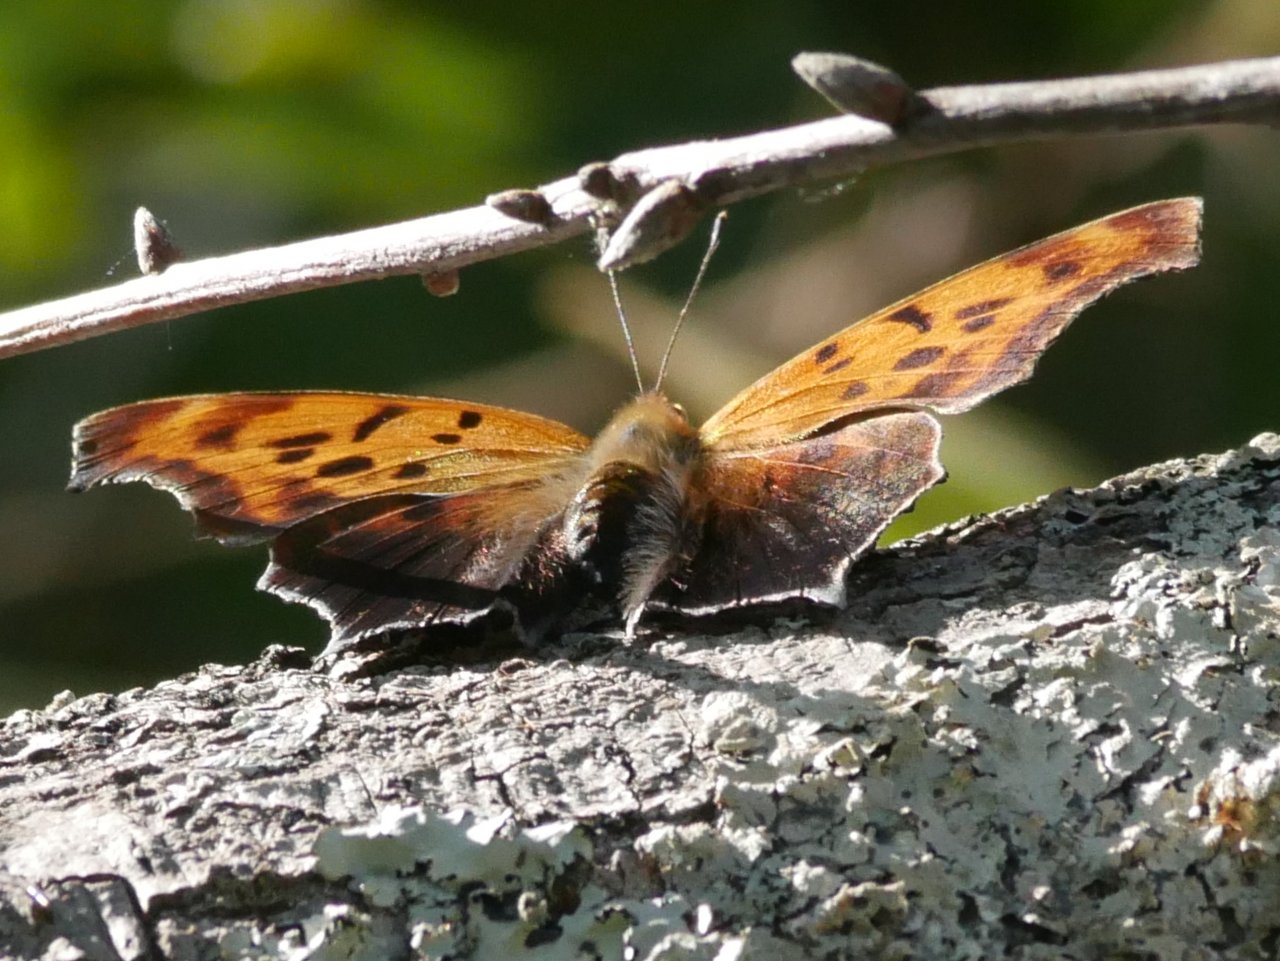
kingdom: Animalia
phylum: Arthropoda
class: Insecta
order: Lepidoptera
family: Nymphalidae
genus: Polygonia
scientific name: Polygonia interrogationis
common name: Question Mark
